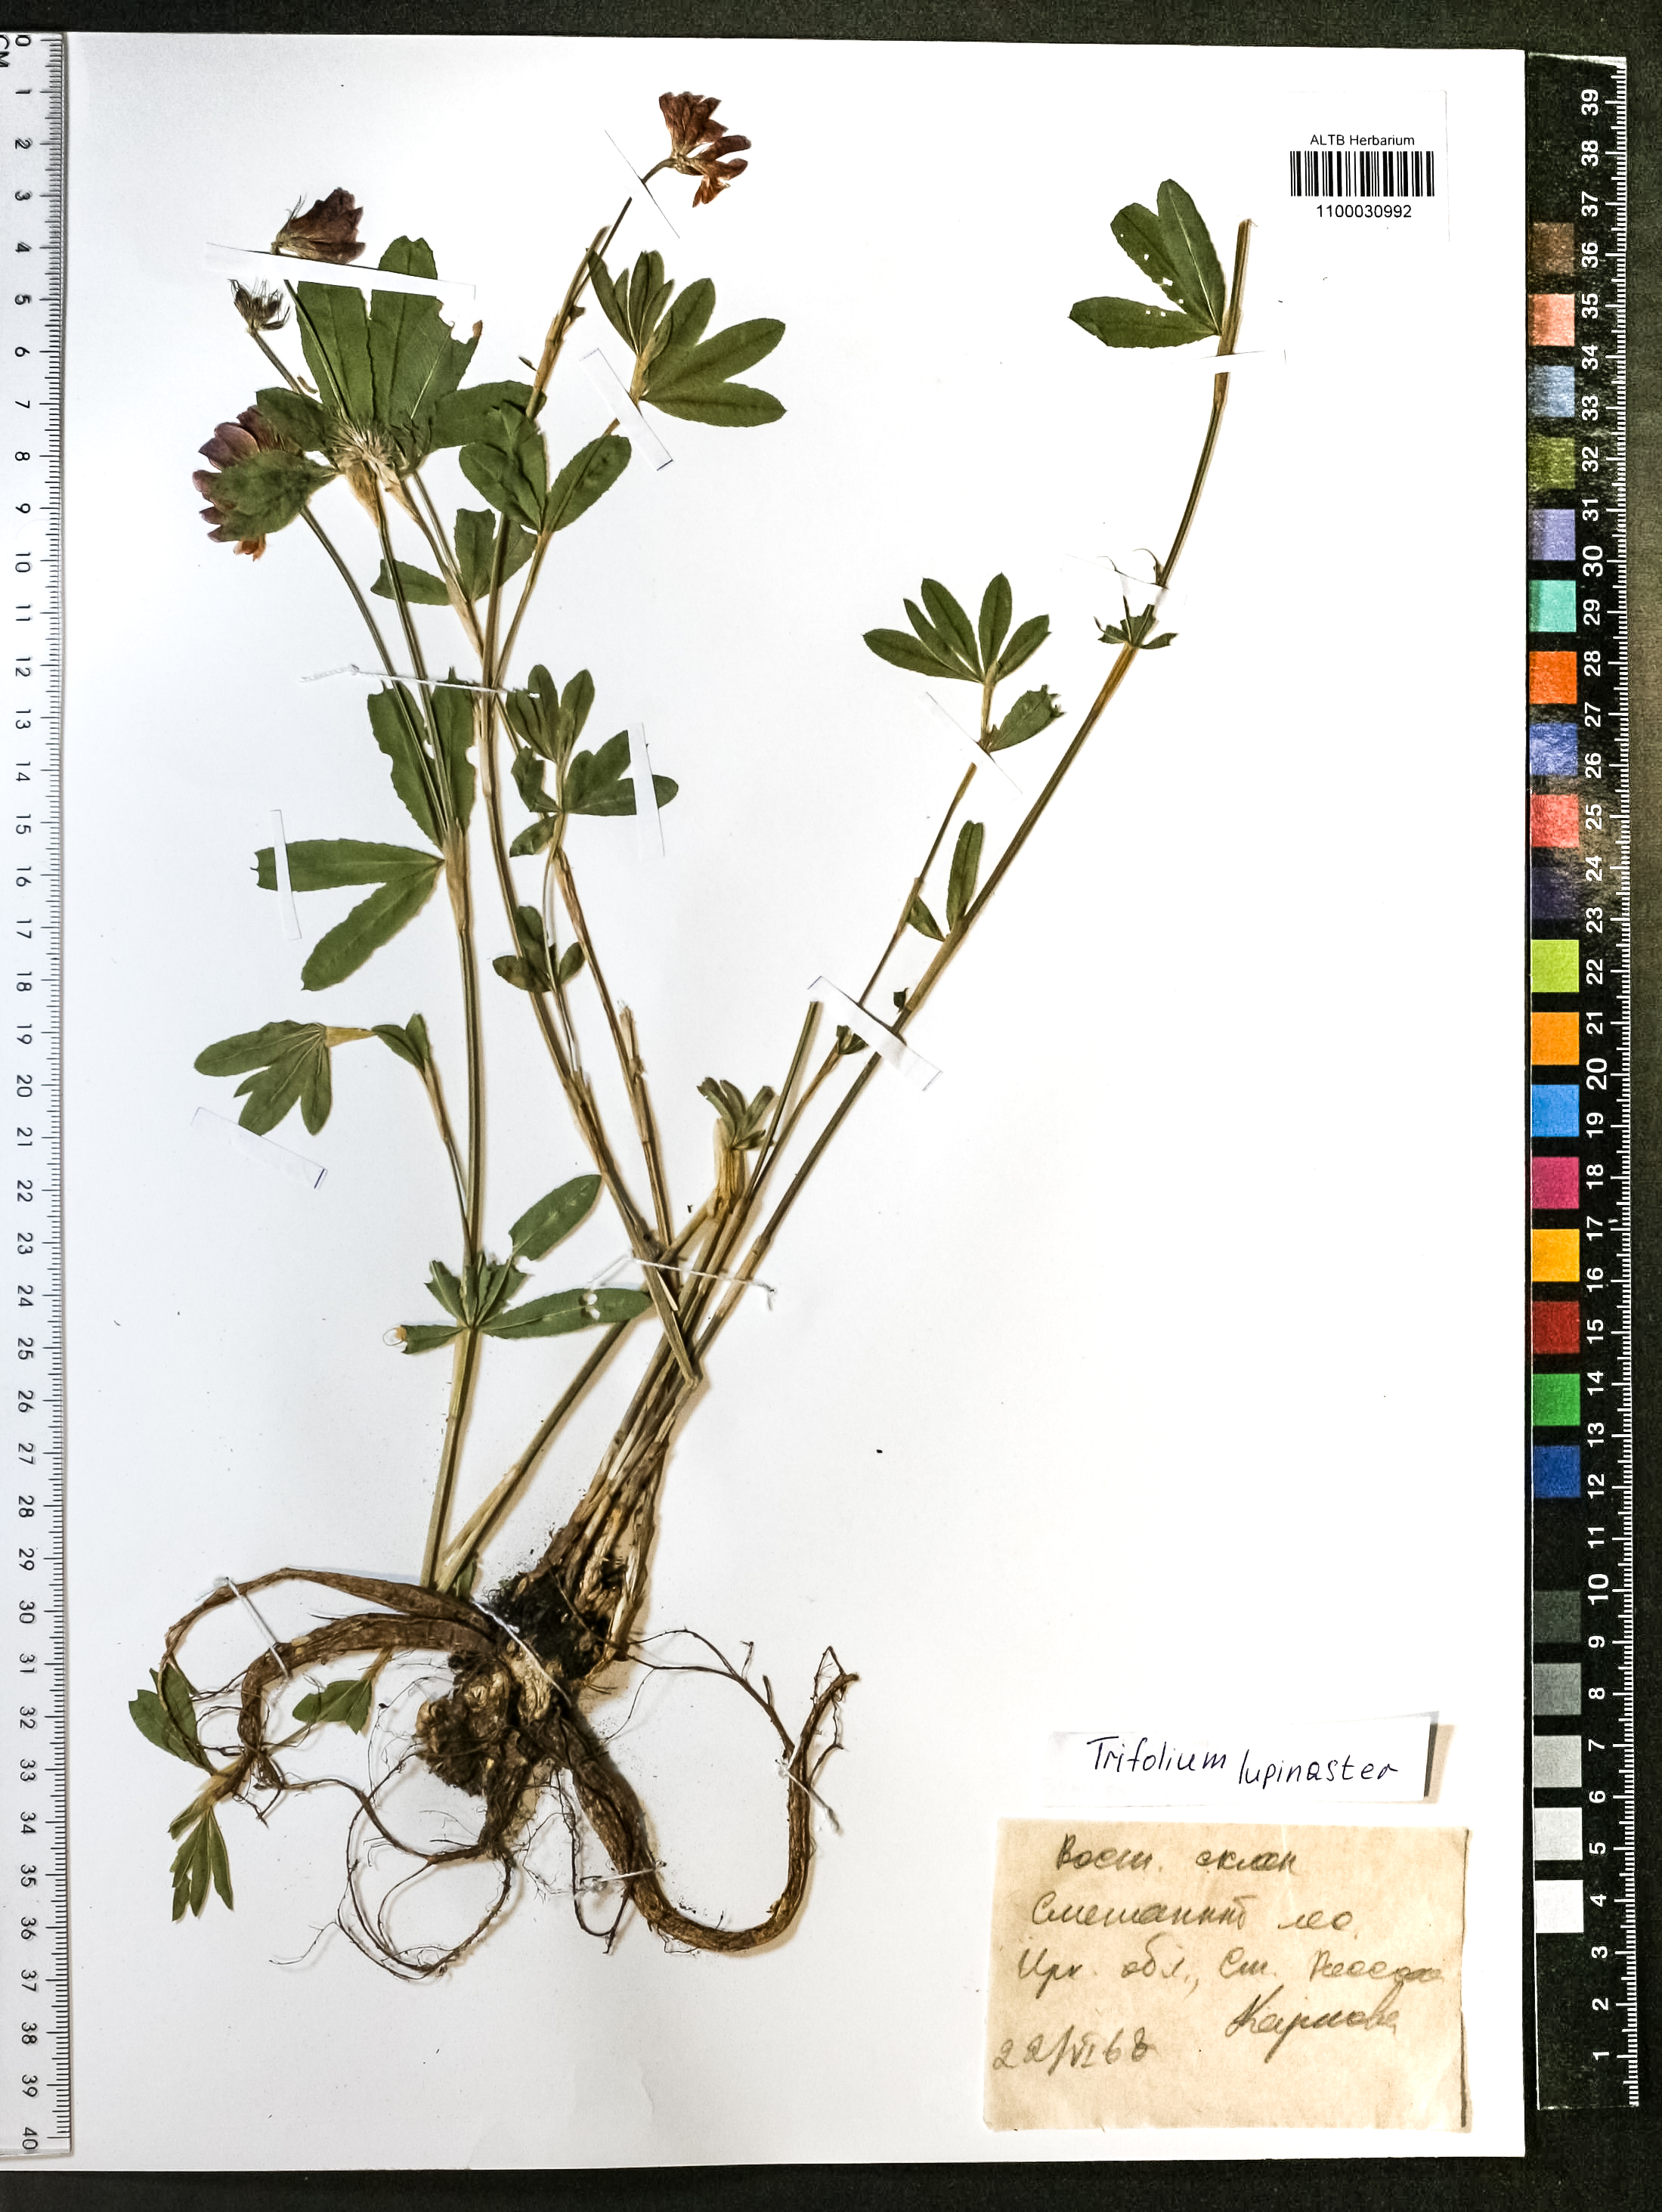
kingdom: Plantae
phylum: Tracheophyta
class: Magnoliopsida
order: Fabales
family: Fabaceae
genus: Trifolium
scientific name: Trifolium lupinaster
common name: Lupine clover
